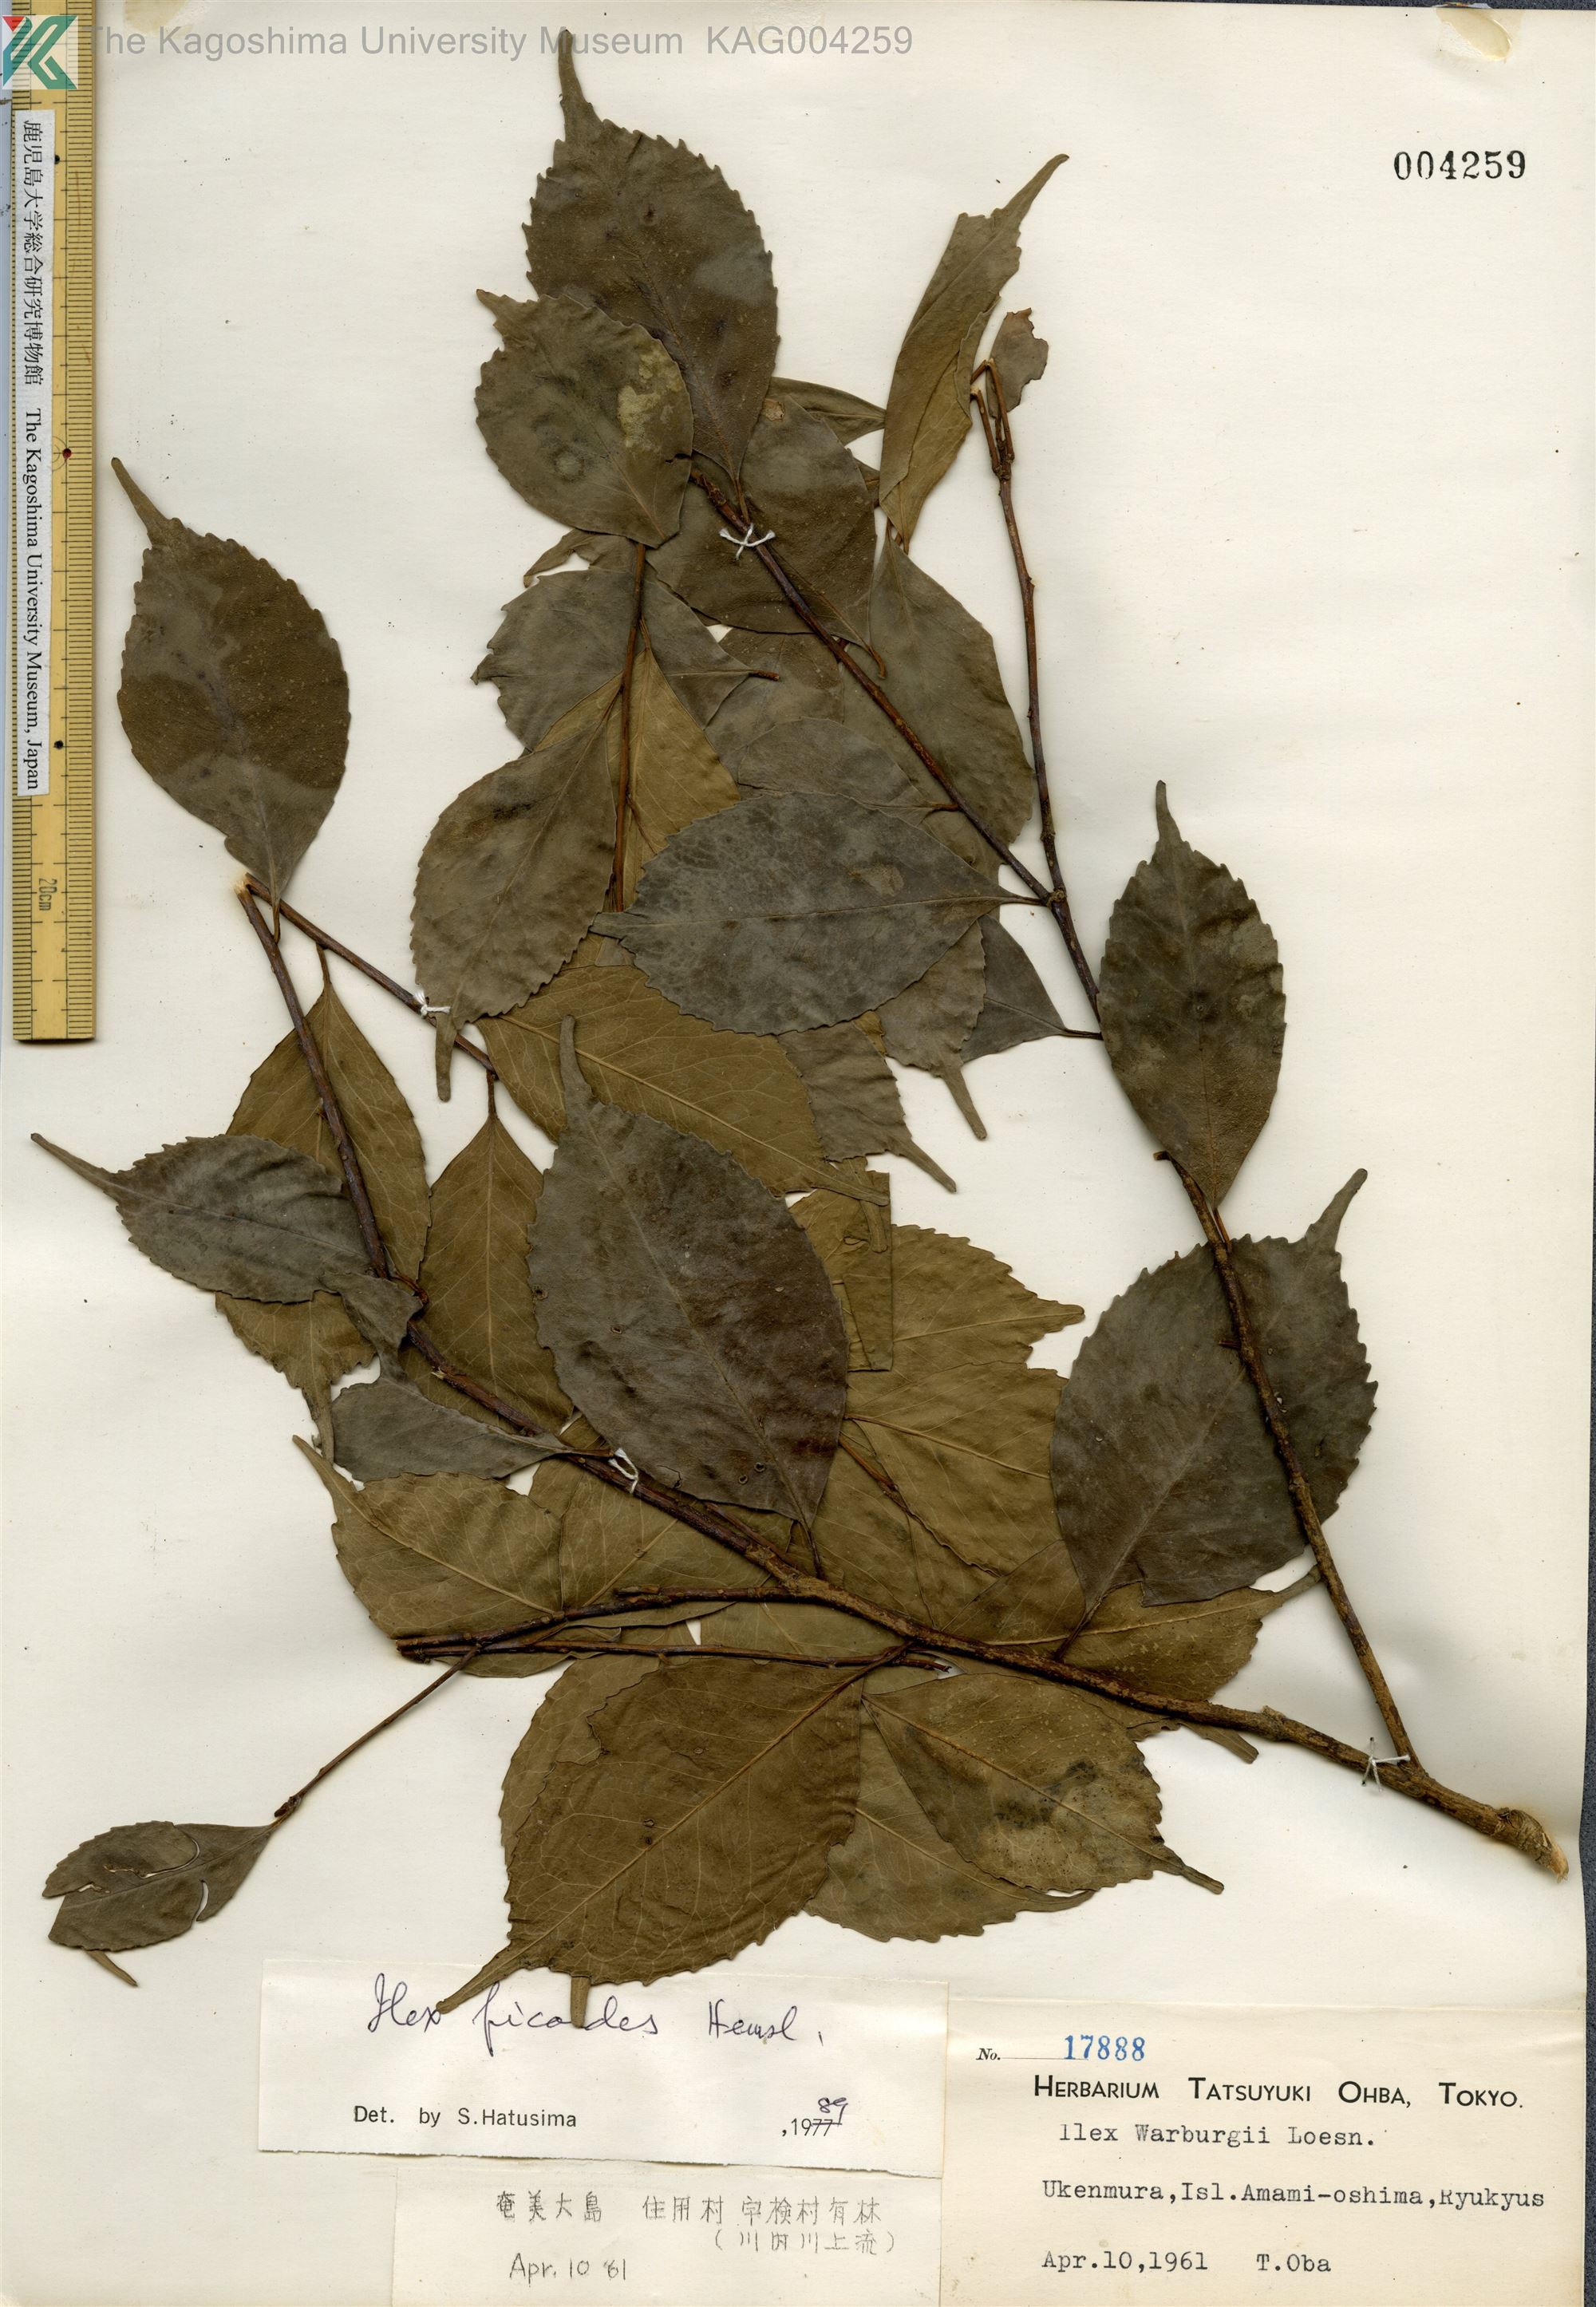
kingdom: Plantae
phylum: Tracheophyta
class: Magnoliopsida
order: Aquifoliales
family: Aquifoliaceae
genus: Ilex
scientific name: Ilex warburgii
